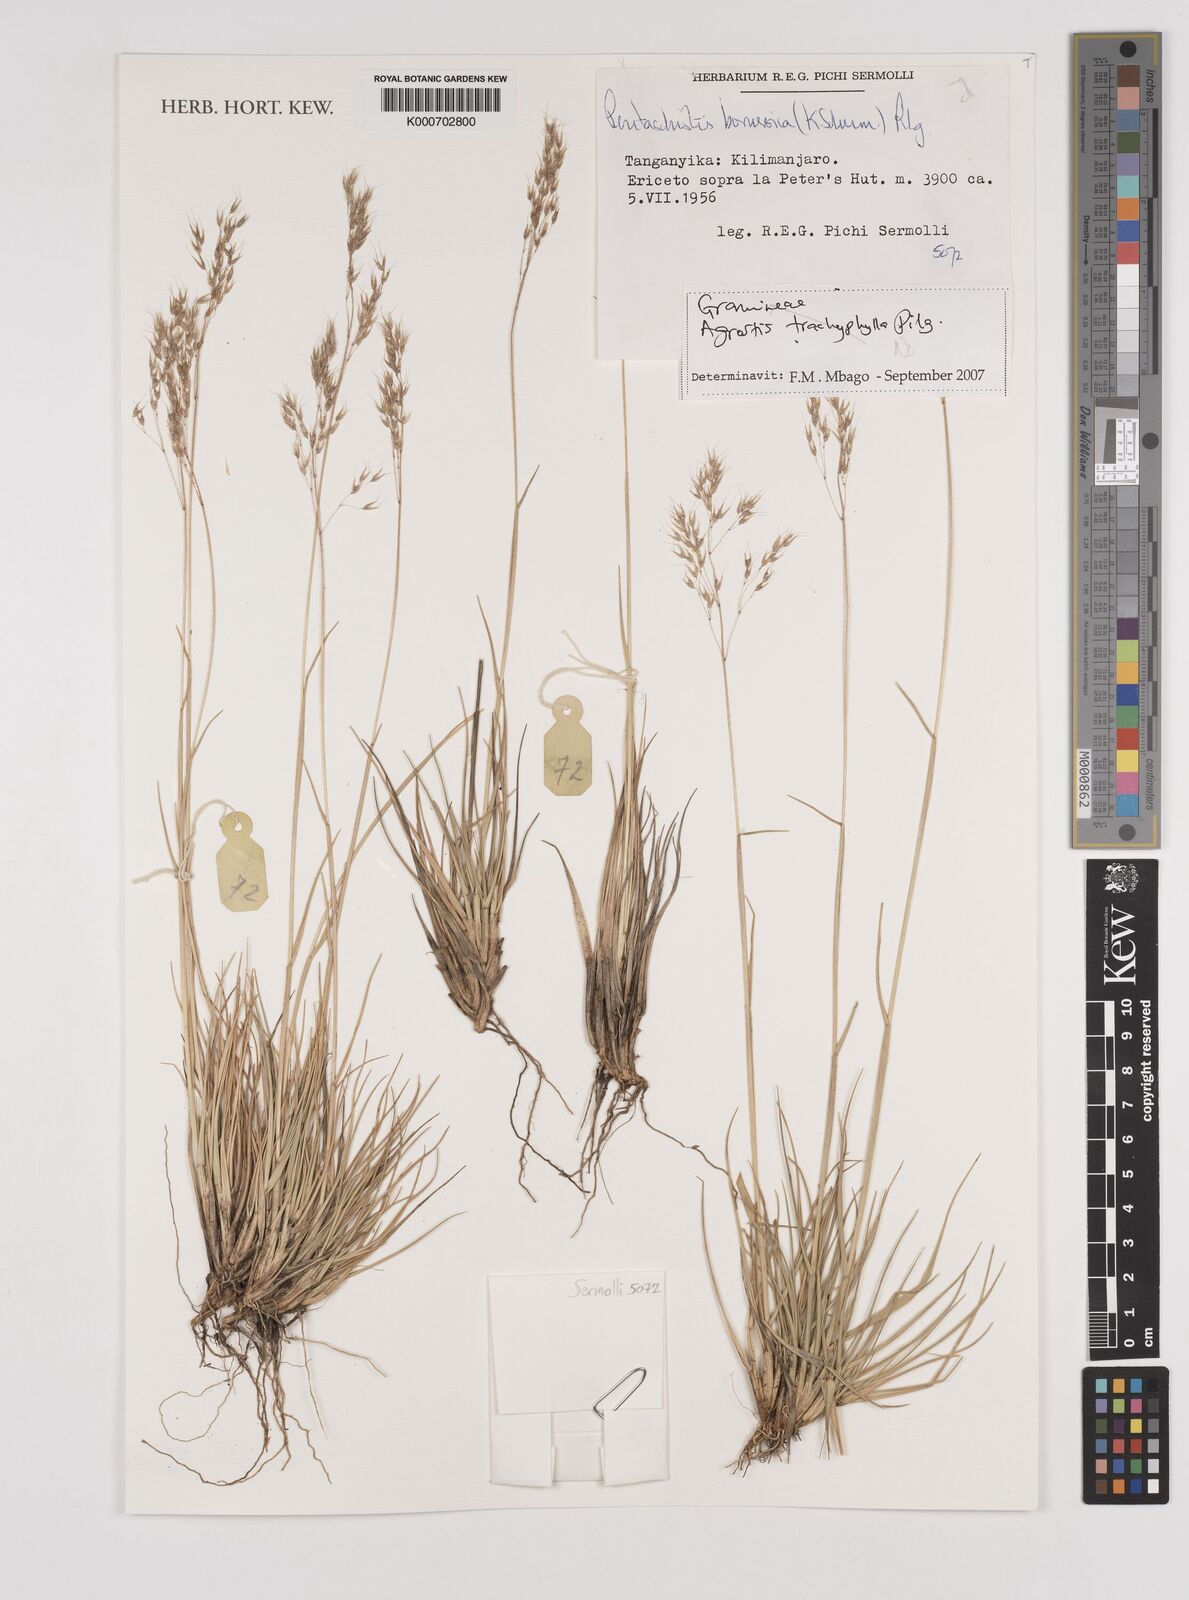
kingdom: Plantae
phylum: Tracheophyta
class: Liliopsida
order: Poales
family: Poaceae
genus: Pentameris
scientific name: Pentameris borussica
